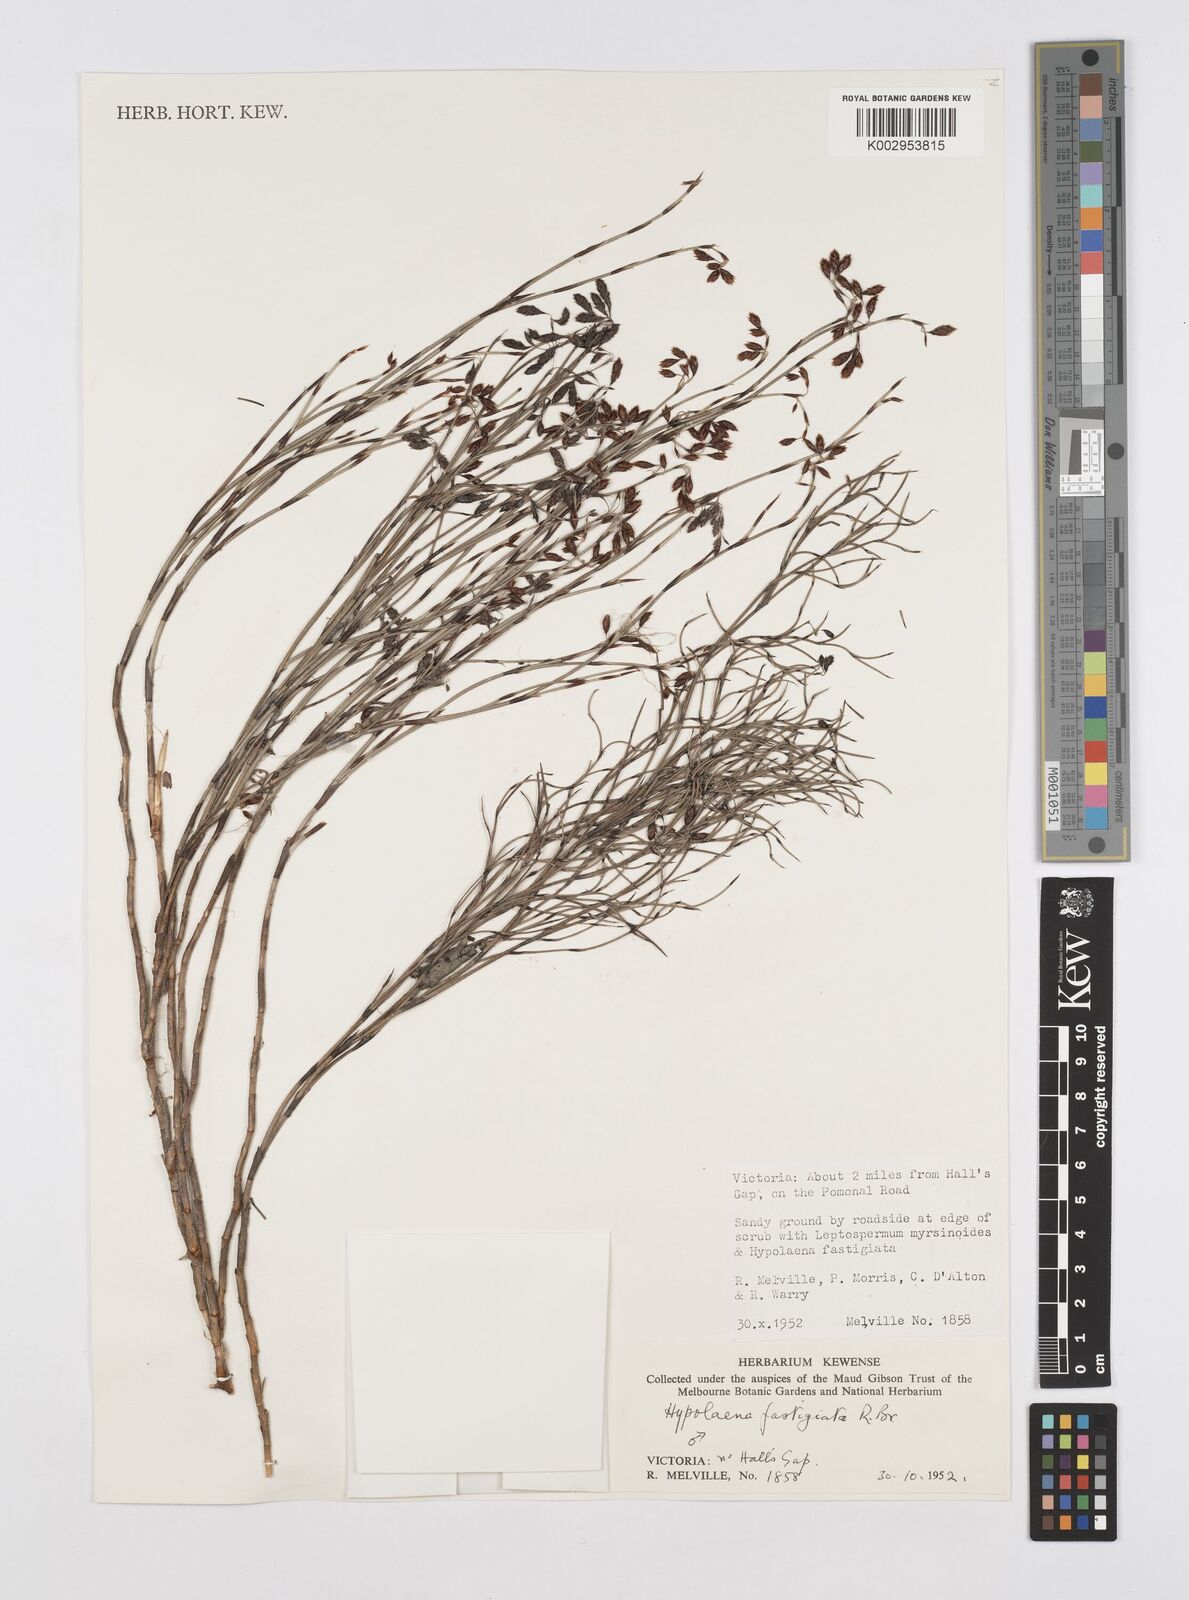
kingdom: Plantae
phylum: Tracheophyta
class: Liliopsida
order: Poales
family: Restionaceae
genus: Hypolaena
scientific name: Hypolaena fastigiata
